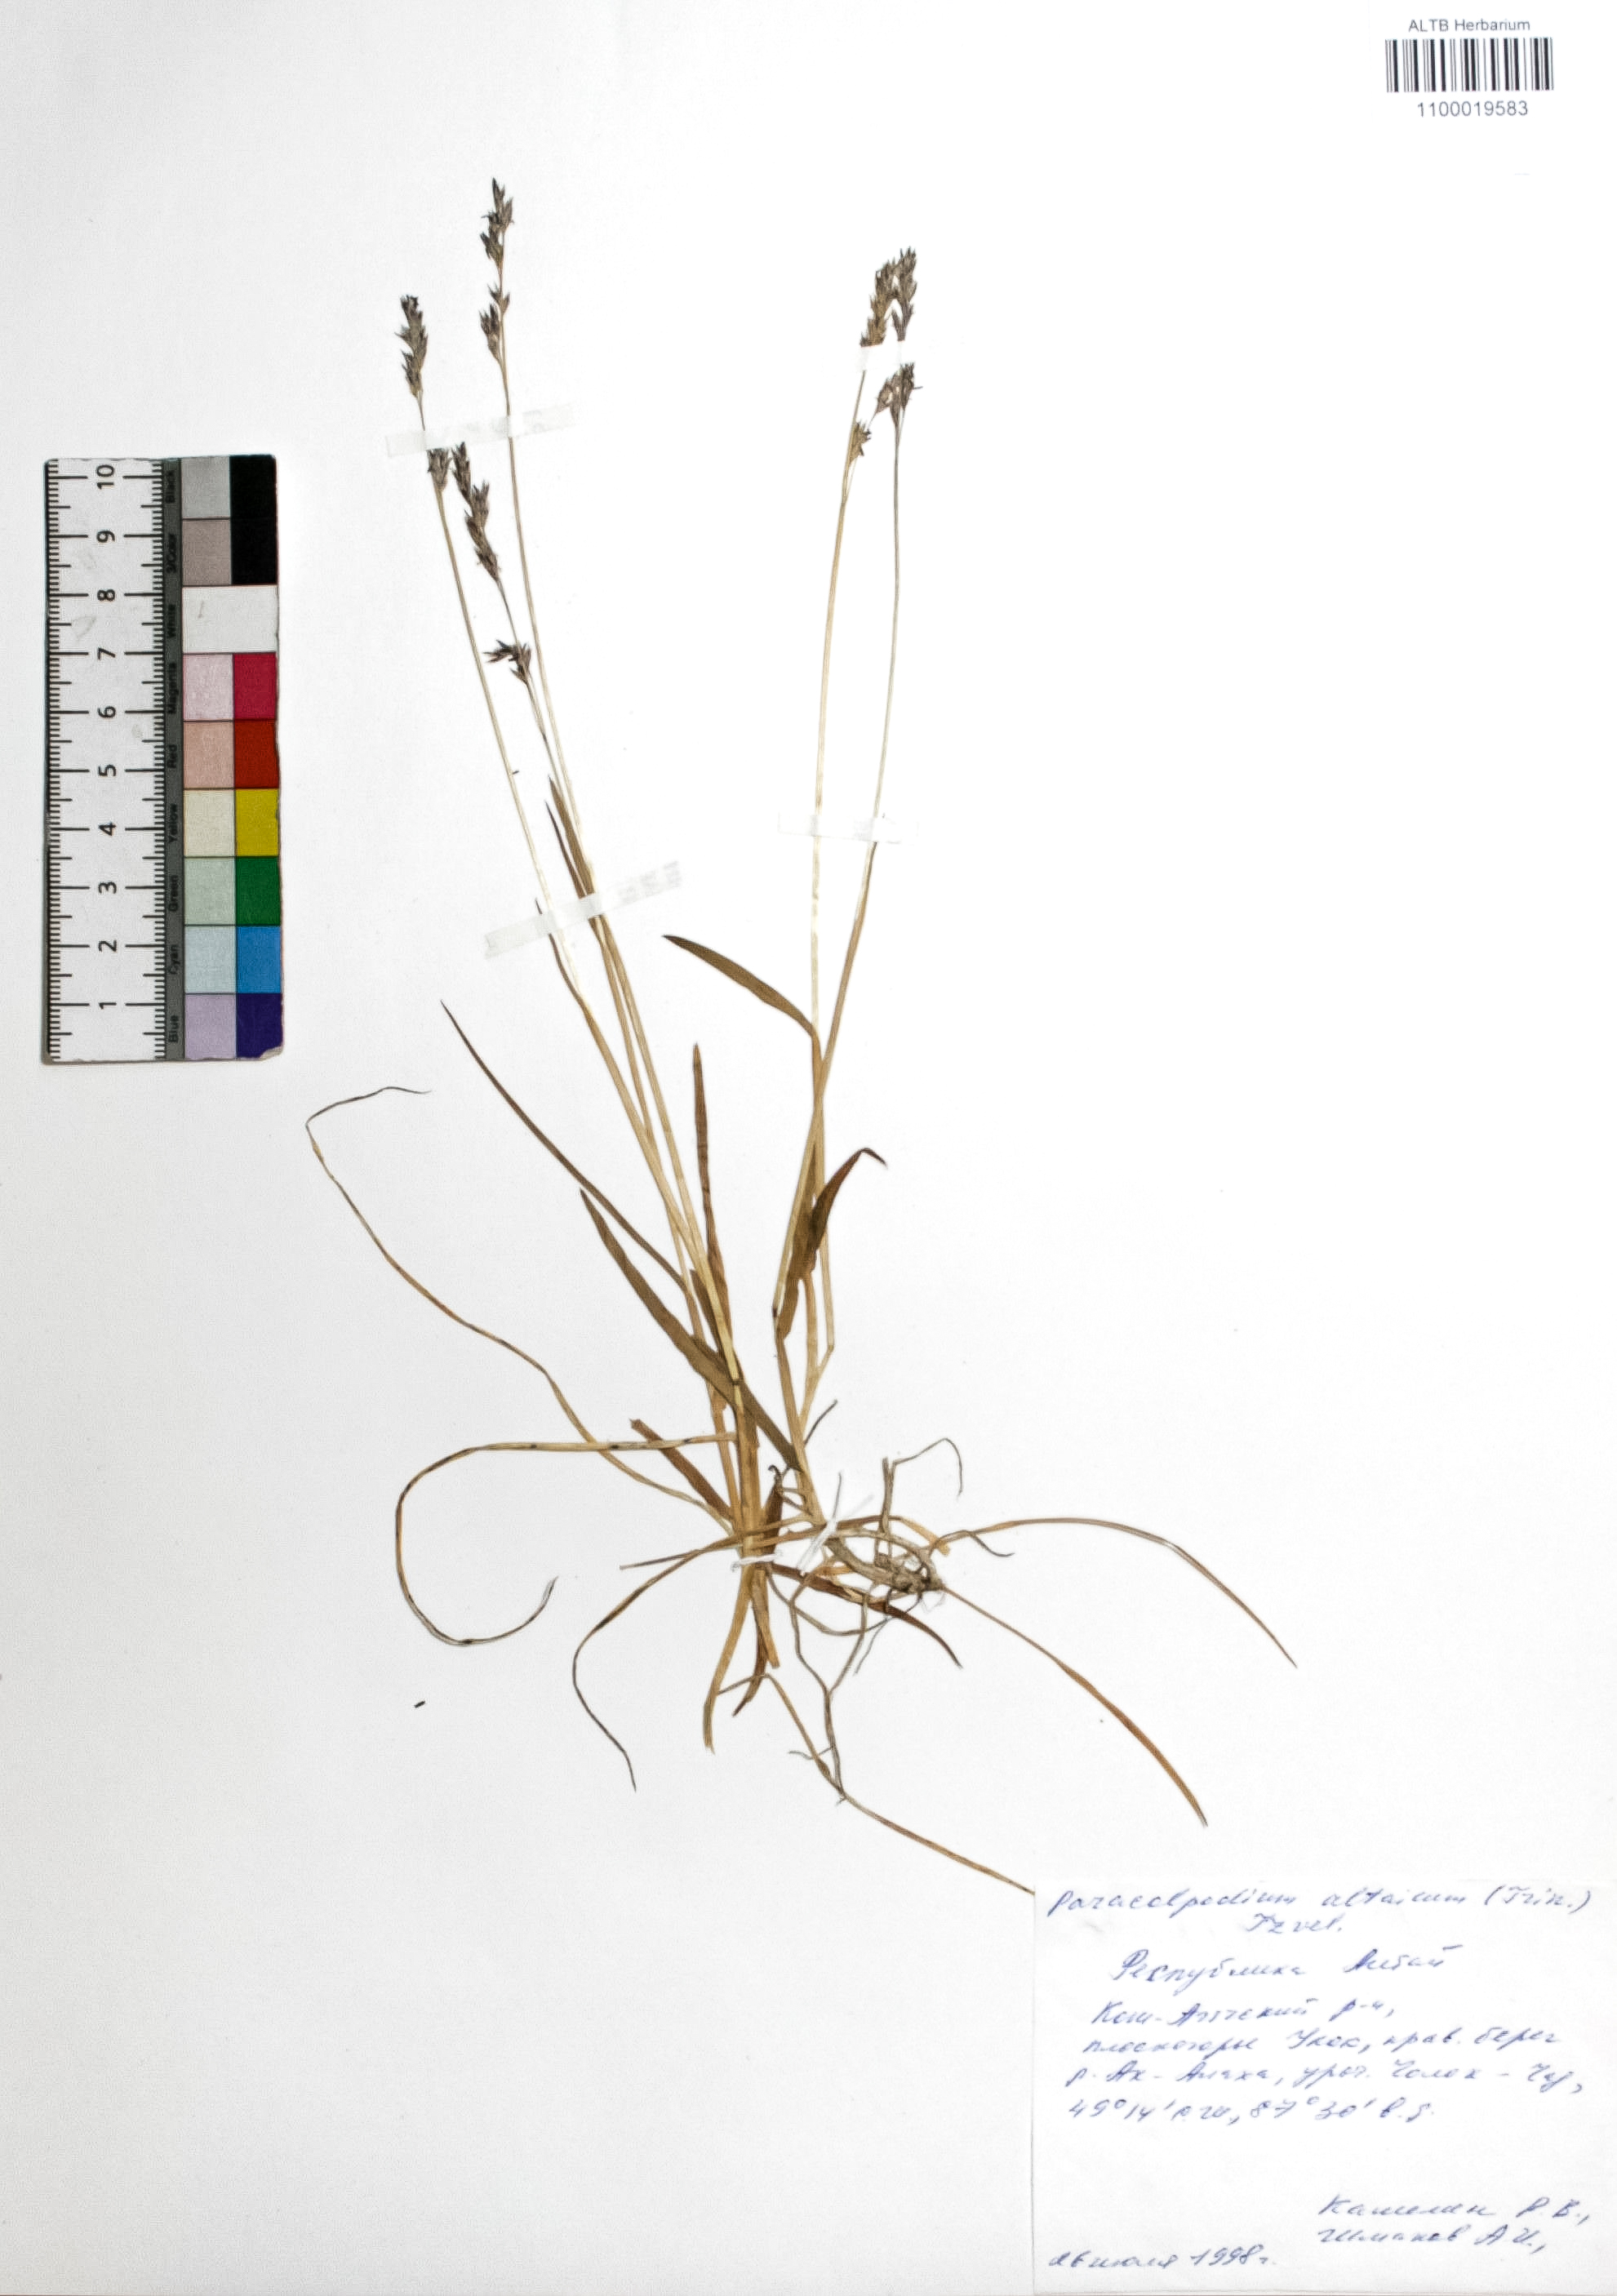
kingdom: Plantae
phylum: Tracheophyta
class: Liliopsida
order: Poales
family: Poaceae
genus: Paracolpodium
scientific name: Paracolpodium altaicum
